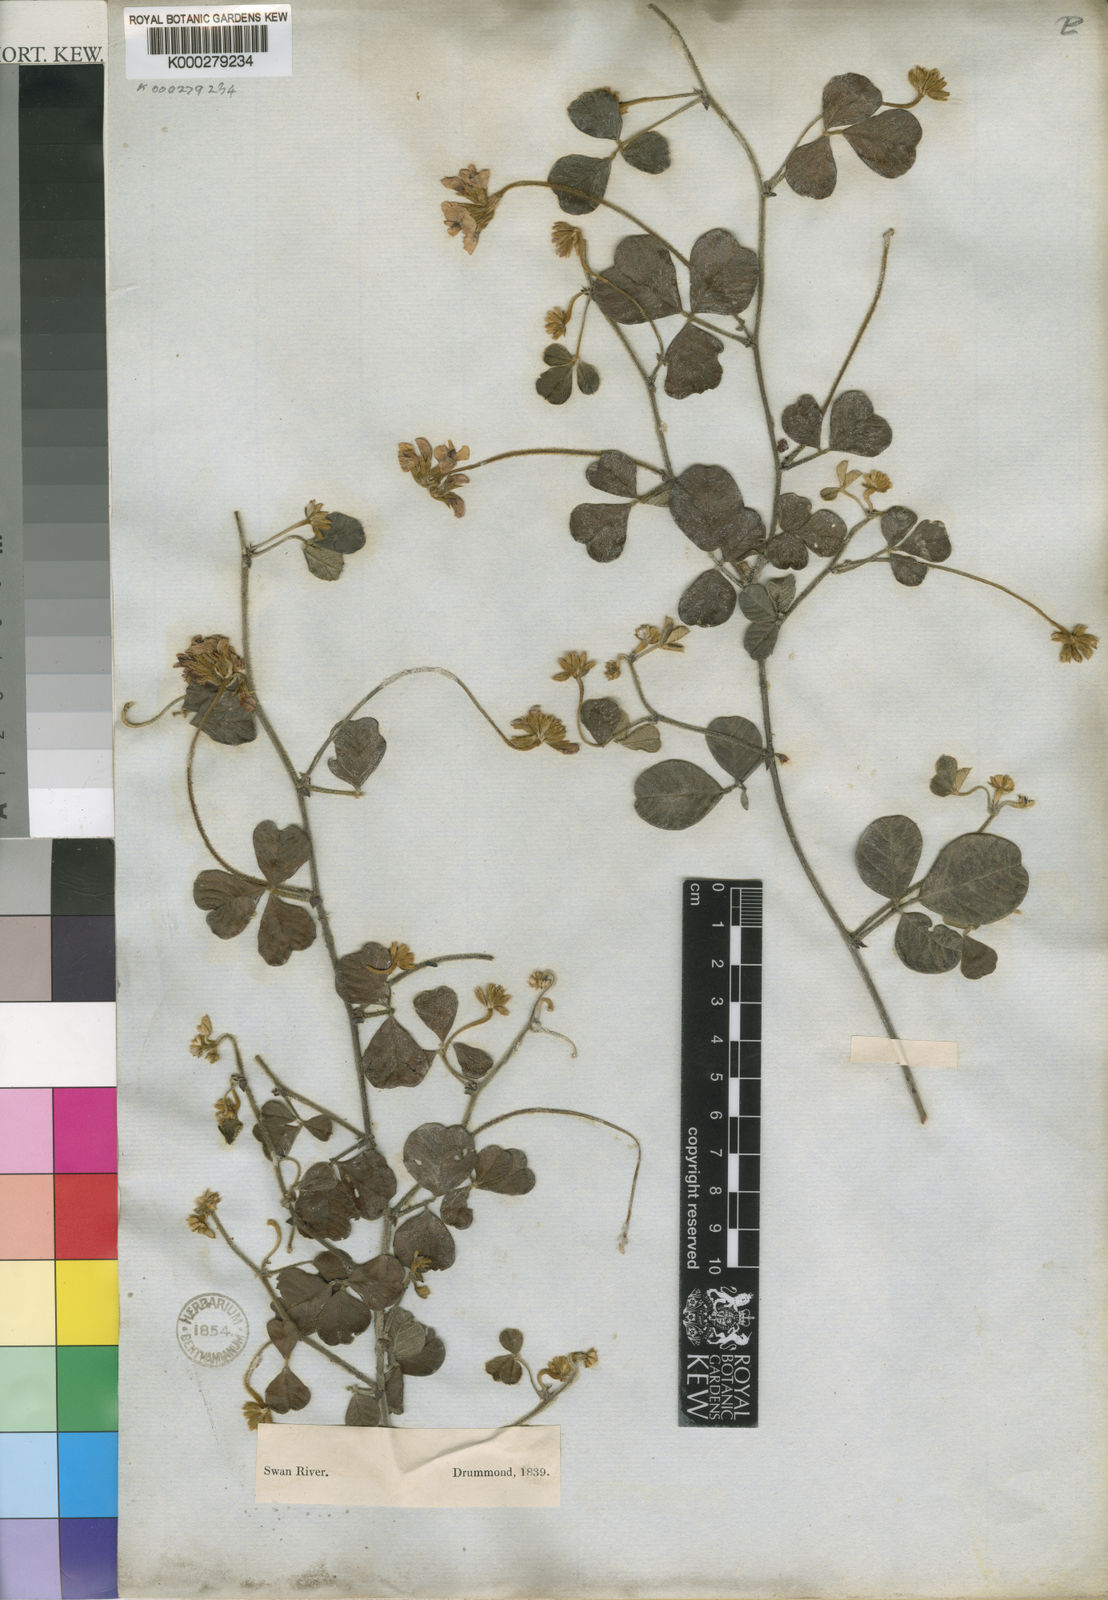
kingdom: Plantae
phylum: Tracheophyta
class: Magnoliopsida
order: Fabales
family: Fabaceae
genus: Kennedia
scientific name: Kennedia coccinea
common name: Coralvine
